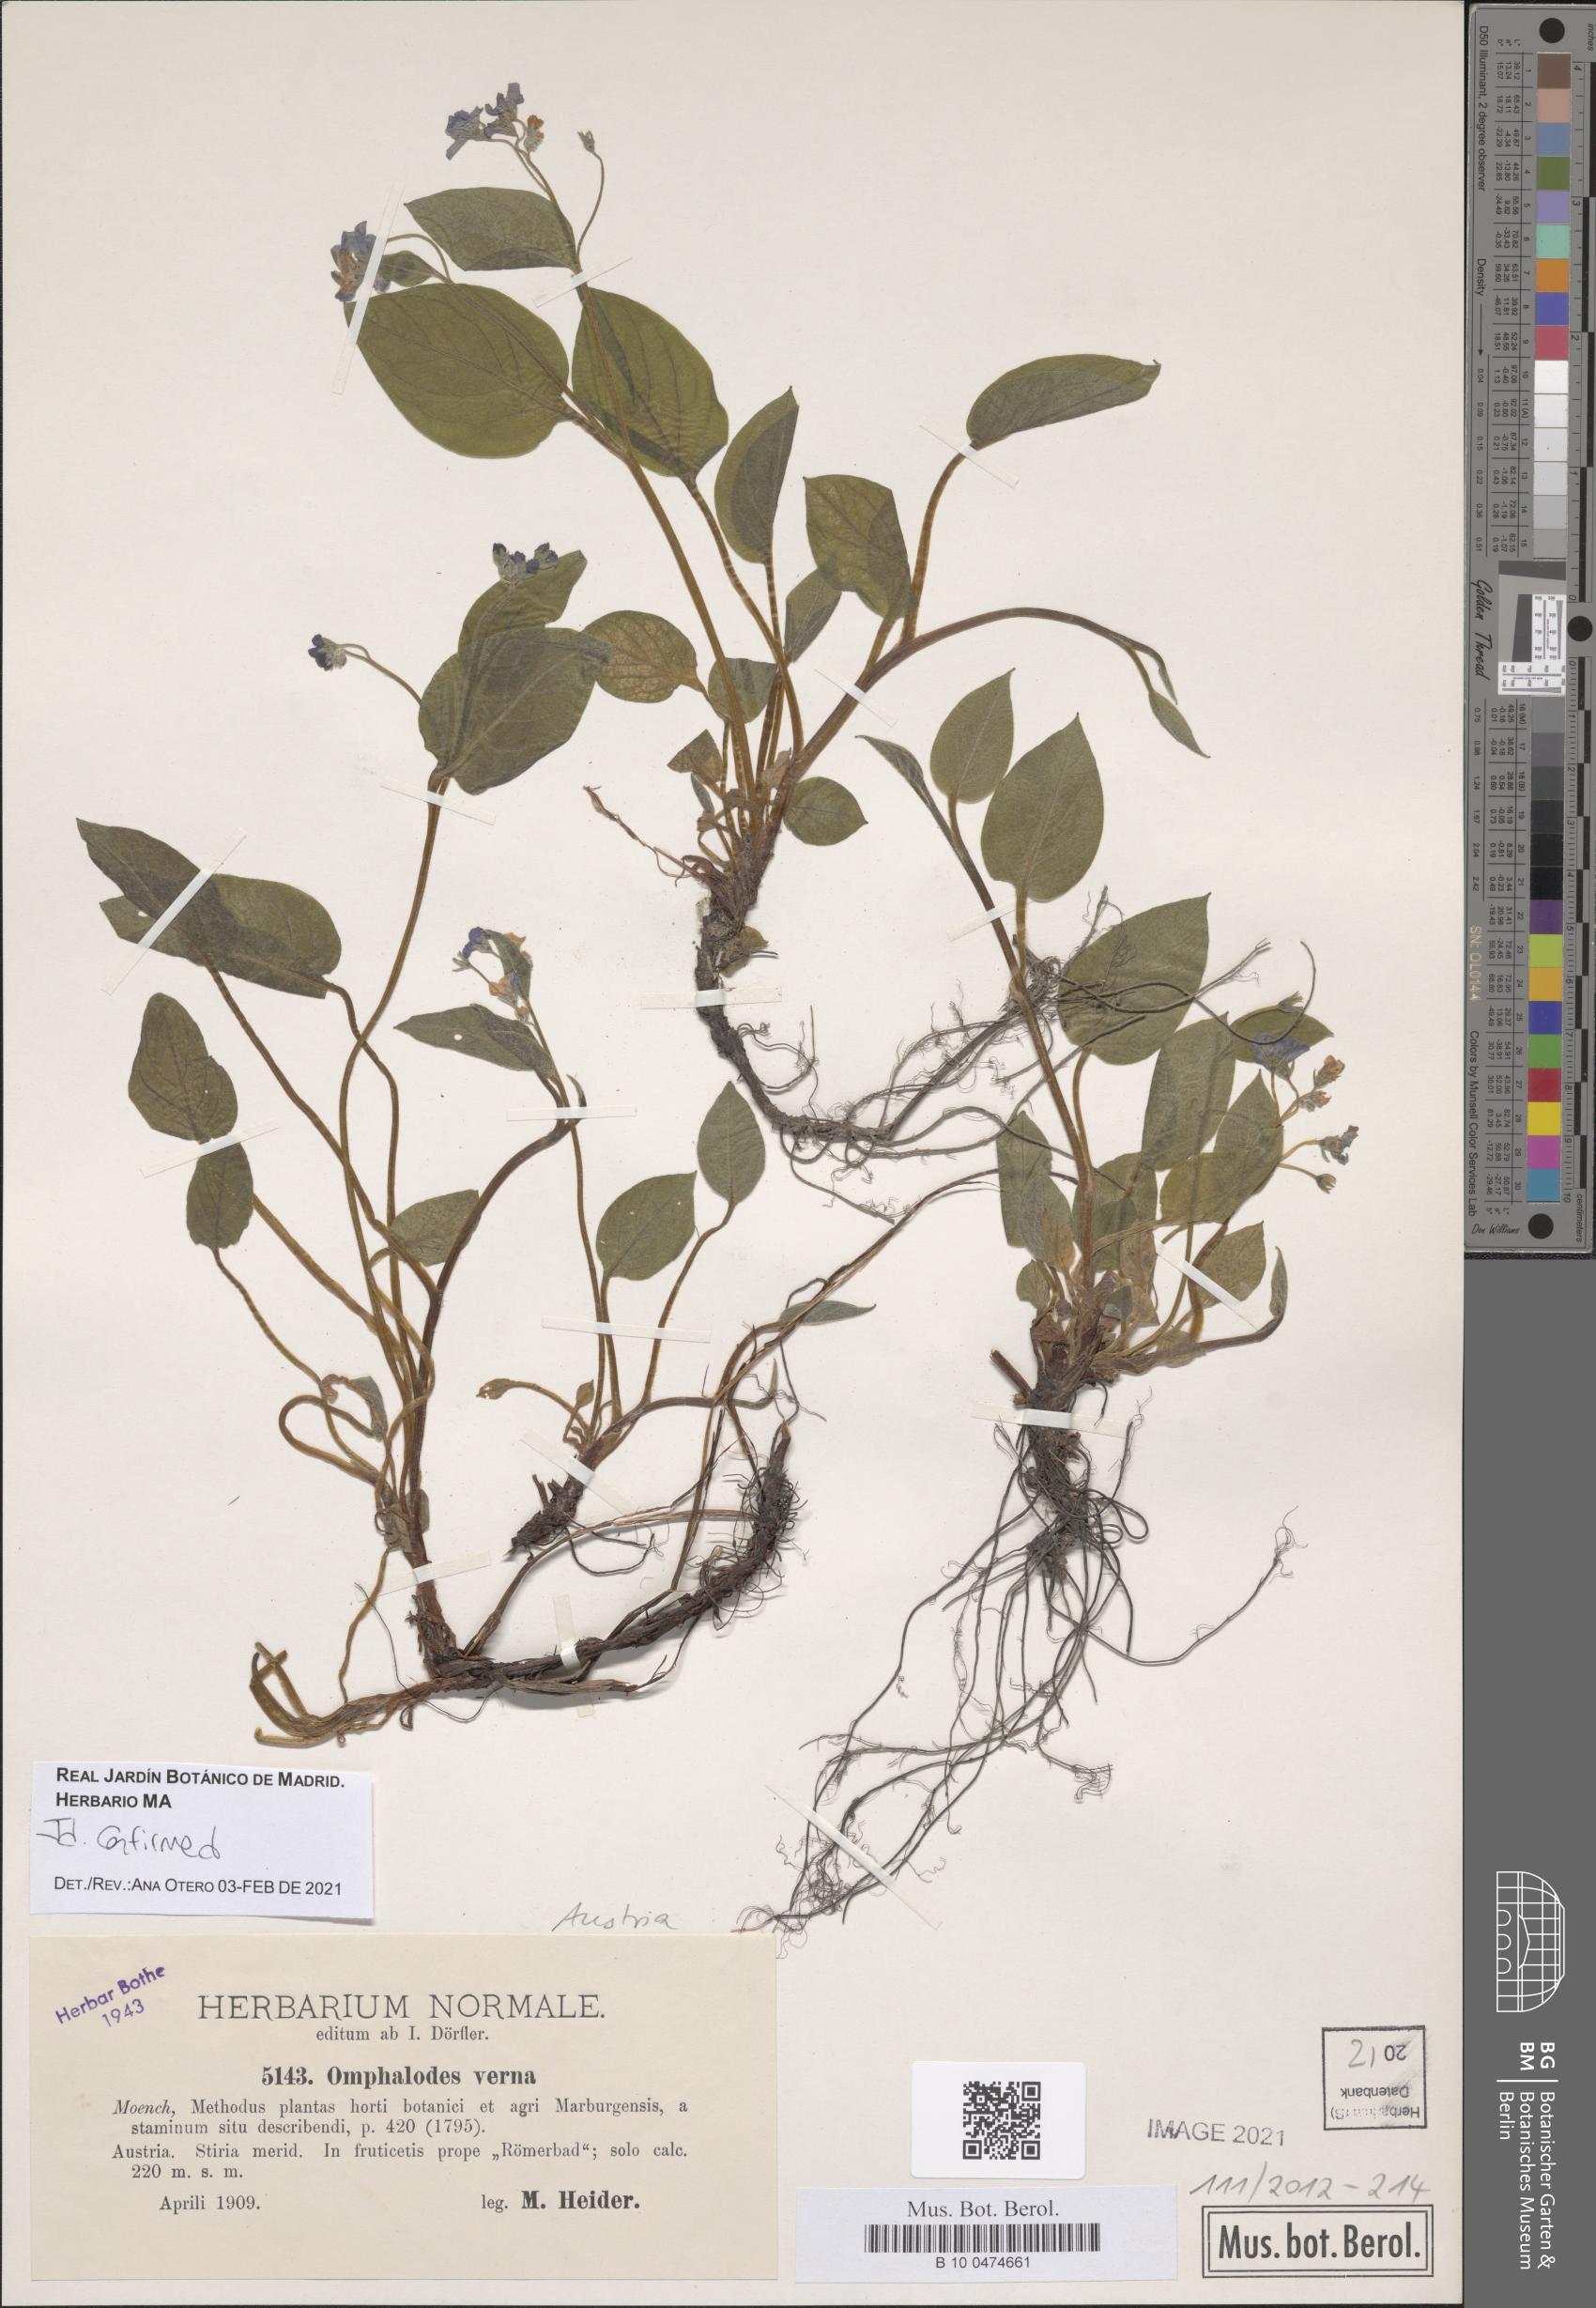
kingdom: Plantae
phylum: Tracheophyta
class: Magnoliopsida
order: Boraginales
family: Boraginaceae
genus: Omphalodes
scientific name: Omphalodes verna
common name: Blue-eyed-mary
